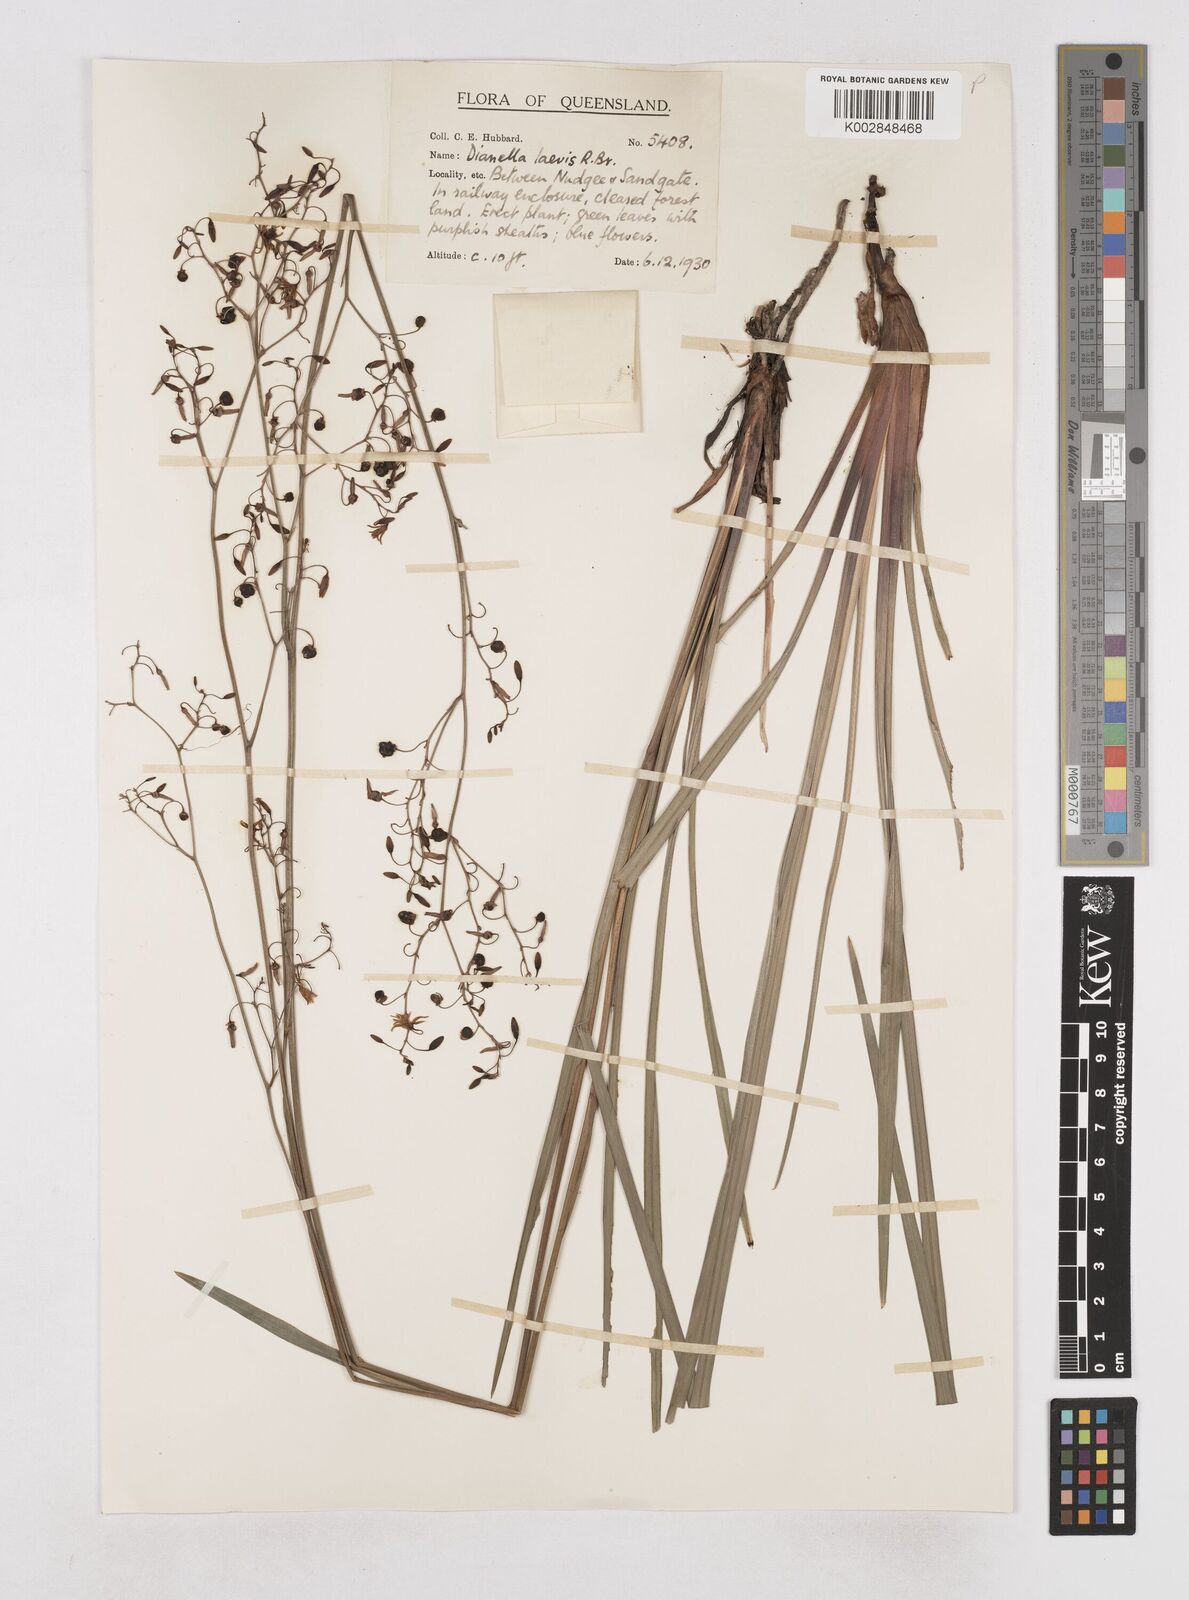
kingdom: Plantae
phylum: Tracheophyta
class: Liliopsida
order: Asparagales
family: Asphodelaceae
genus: Dianella
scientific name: Dianella longifolia
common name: Blue flax-lily
